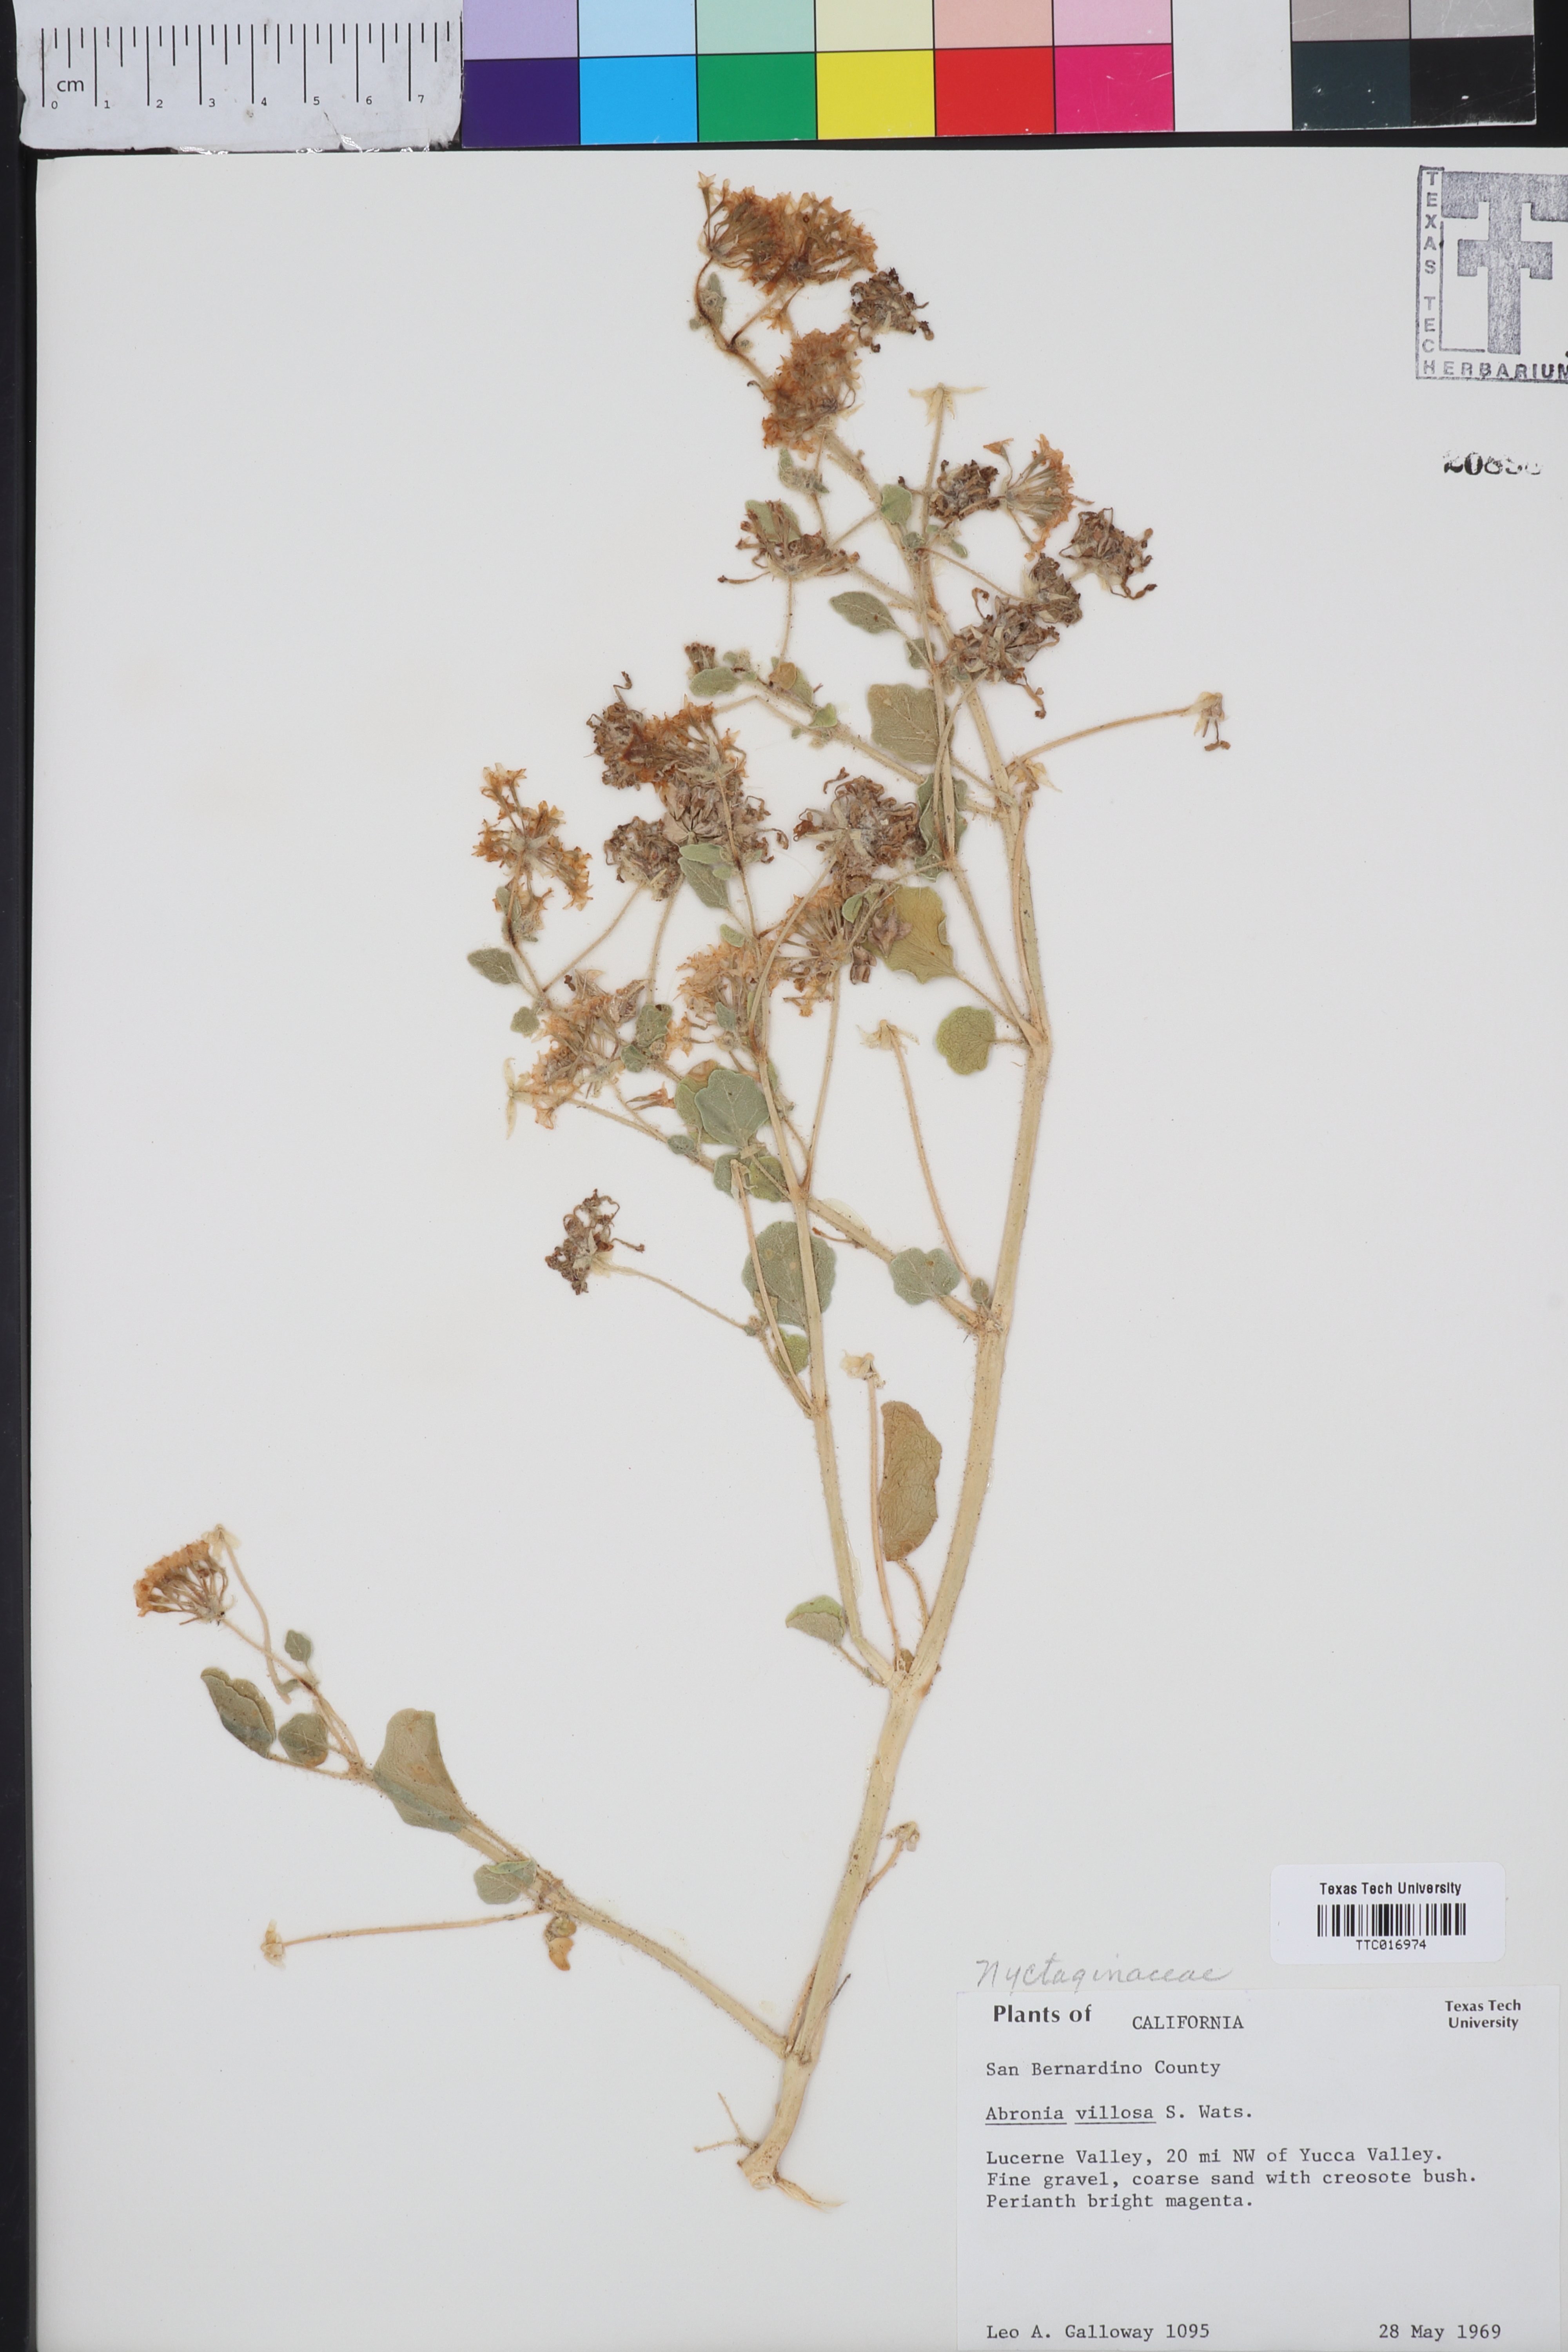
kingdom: Plantae
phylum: Tracheophyta
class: Magnoliopsida
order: Caryophyllales
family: Nyctaginaceae
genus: Abronia
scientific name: Abronia villosa
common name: Desert sand-verbena
